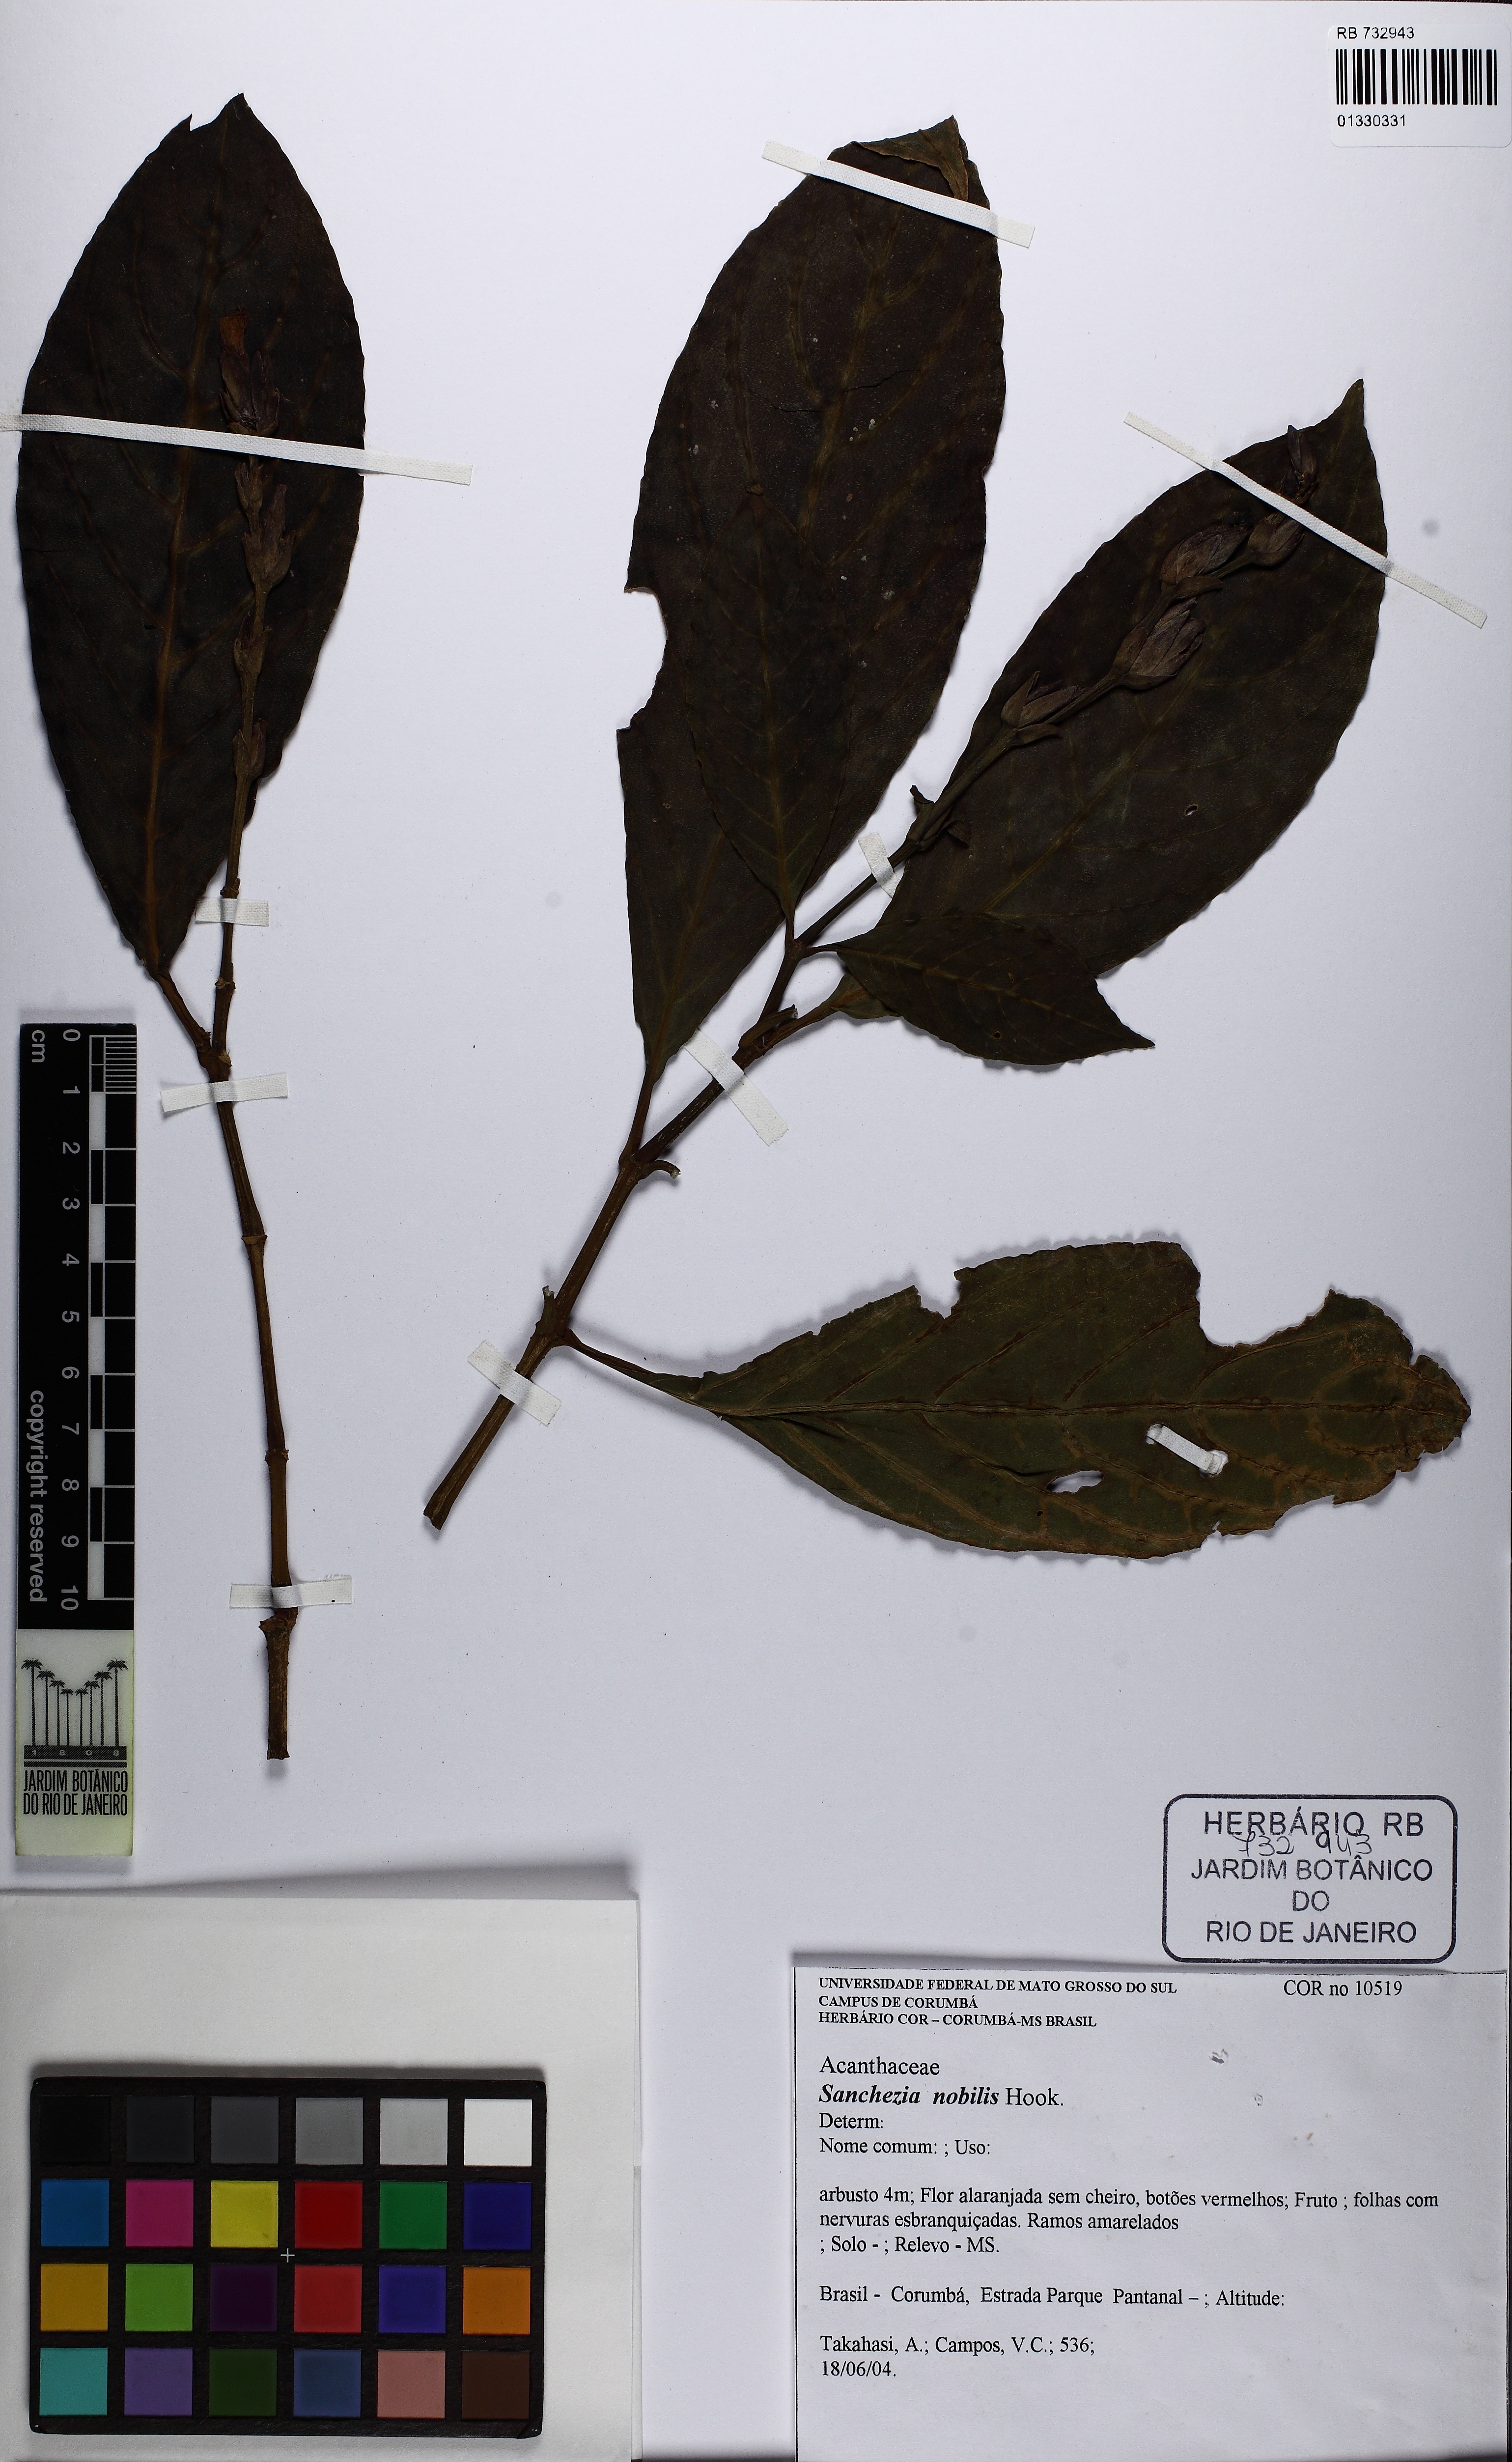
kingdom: Plantae
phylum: Tracheophyta
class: Magnoliopsida
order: Lamiales
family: Acanthaceae
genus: Sanchezia
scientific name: Sanchezia tigrina
